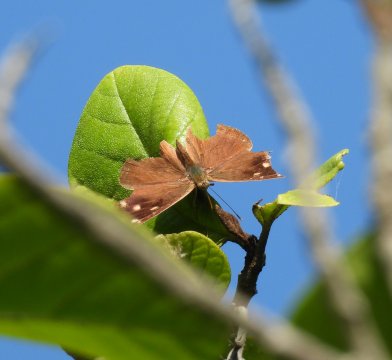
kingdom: Animalia
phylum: Arthropoda
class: Insecta
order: Lepidoptera
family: Nymphalidae
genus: Eunica
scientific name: Eunica monima
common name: Dingy Purplewing
